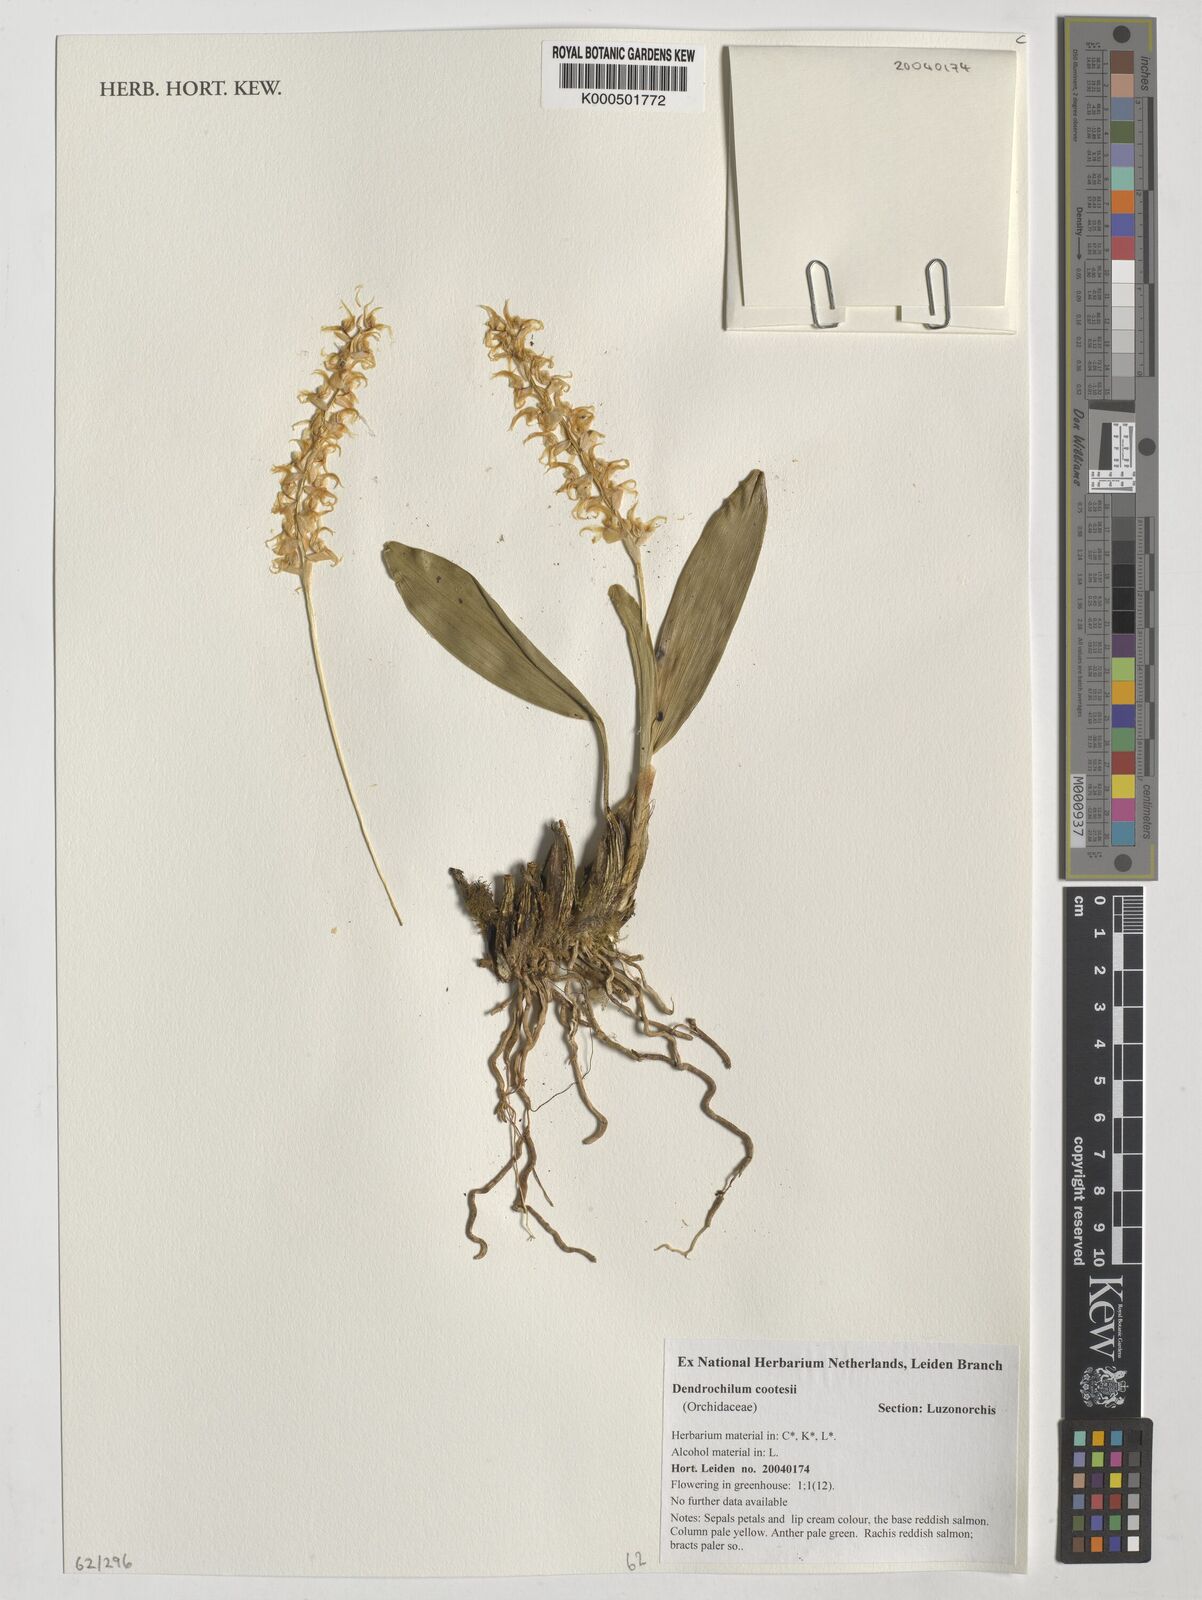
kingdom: Plantae
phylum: Tracheophyta
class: Liliopsida
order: Asparagales
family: Orchidaceae
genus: Coelogyne
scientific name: Coelogyne cootesii
